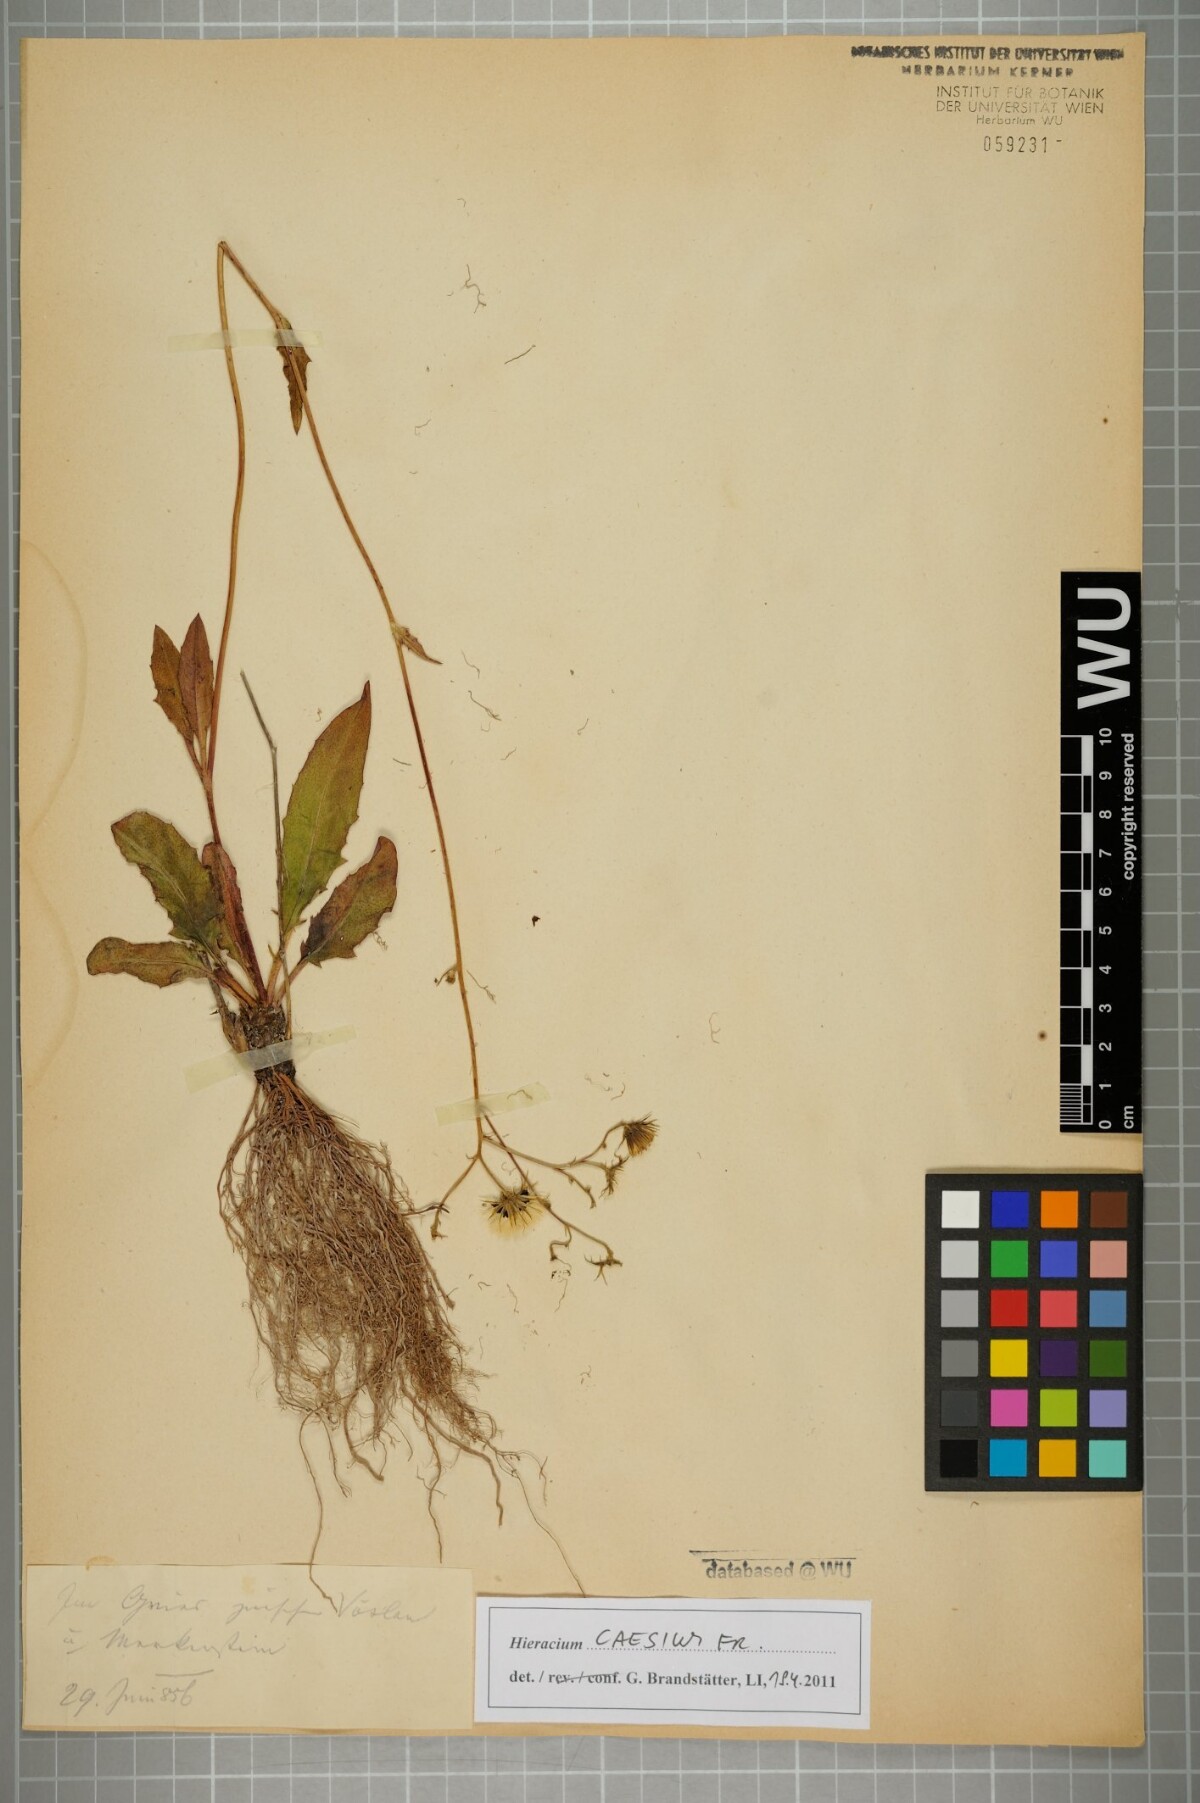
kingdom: Plantae
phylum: Tracheophyta
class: Magnoliopsida
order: Asterales
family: Asteraceae
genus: Hieracium
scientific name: Hieracium caesium
